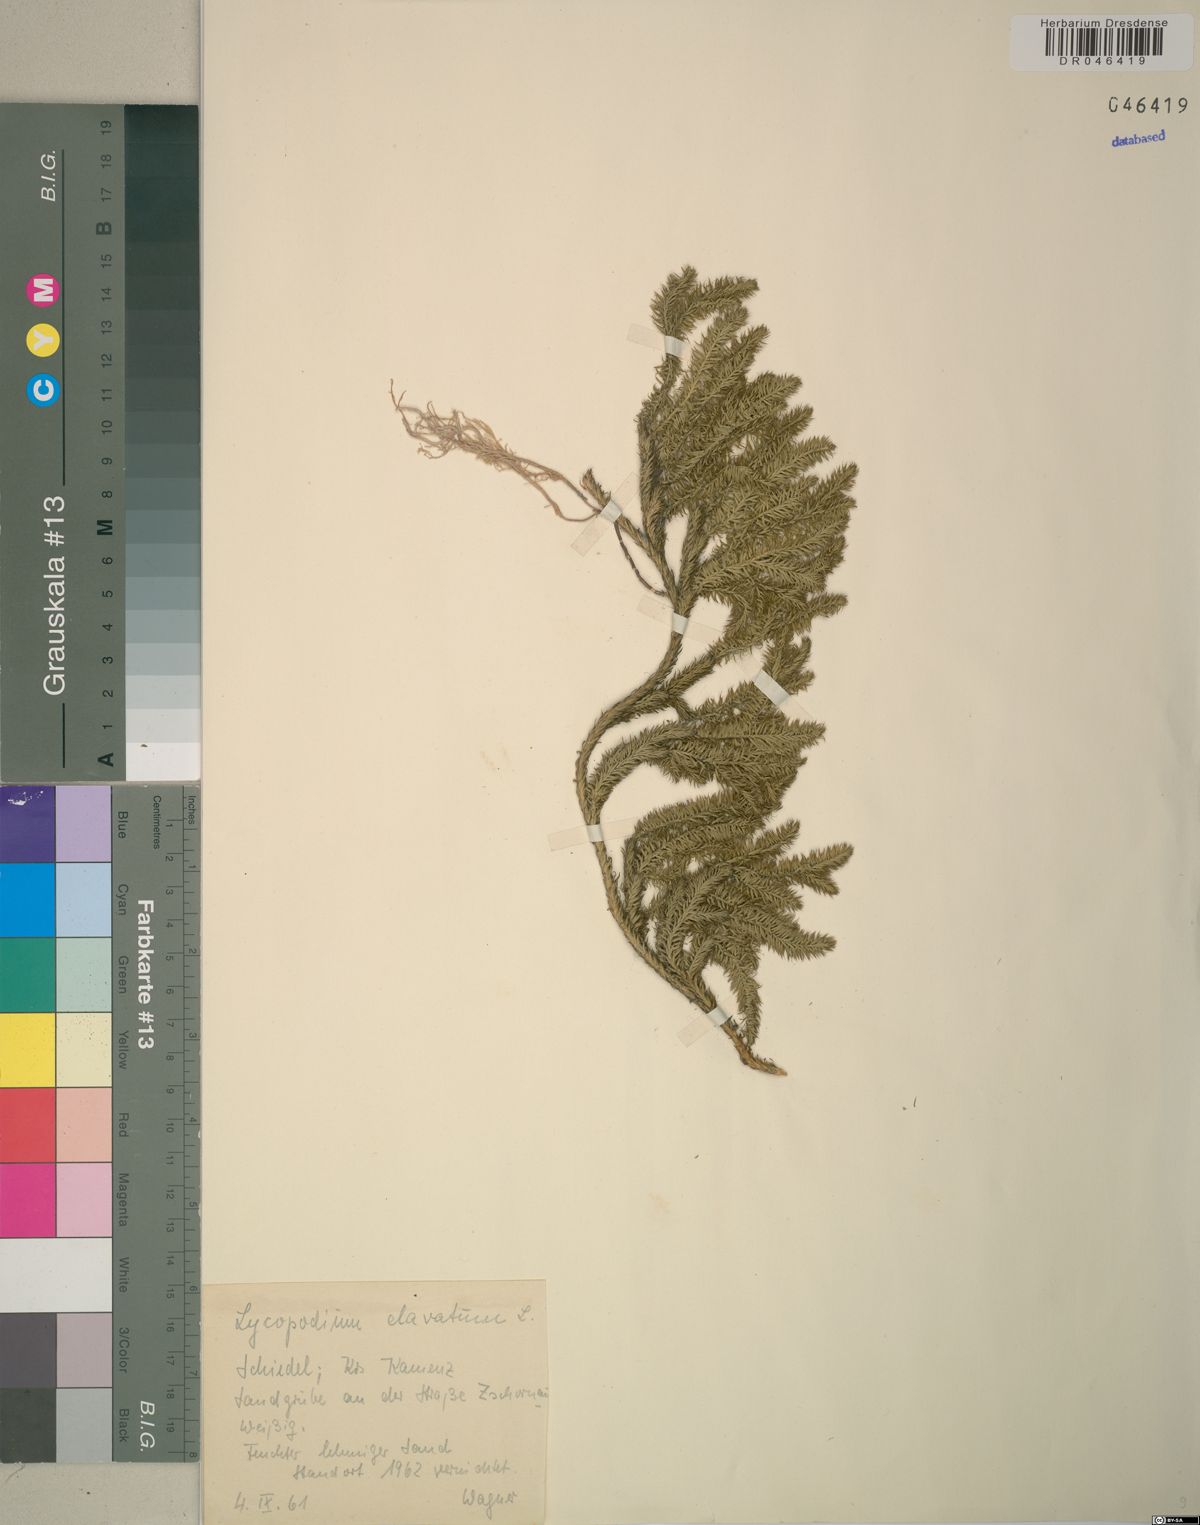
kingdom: Plantae
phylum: Tracheophyta
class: Lycopodiopsida
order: Lycopodiales
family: Lycopodiaceae
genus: Lycopodium
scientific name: Lycopodium clavatum
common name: Stag's-horn clubmoss
